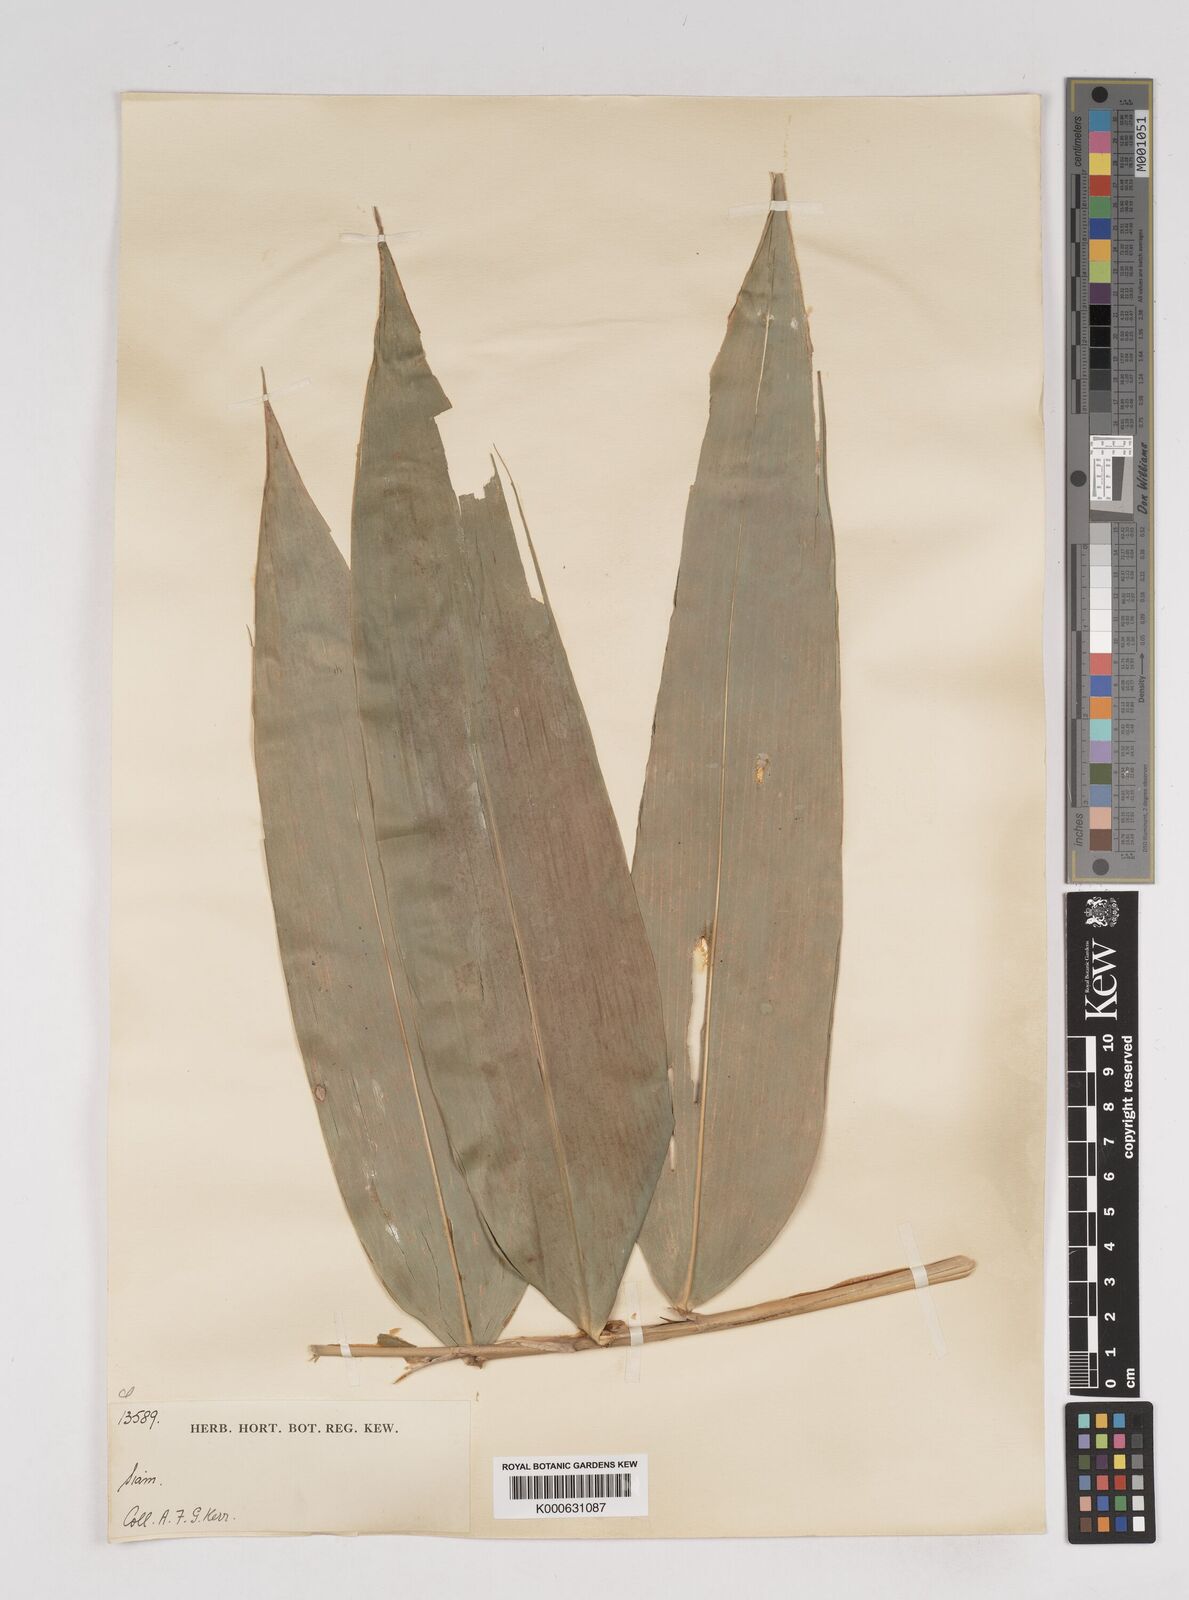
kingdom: Plantae
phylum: Tracheophyta
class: Liliopsida
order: Poales
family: Poaceae
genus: Gigantochloa
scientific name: Gigantochloa ligulata
